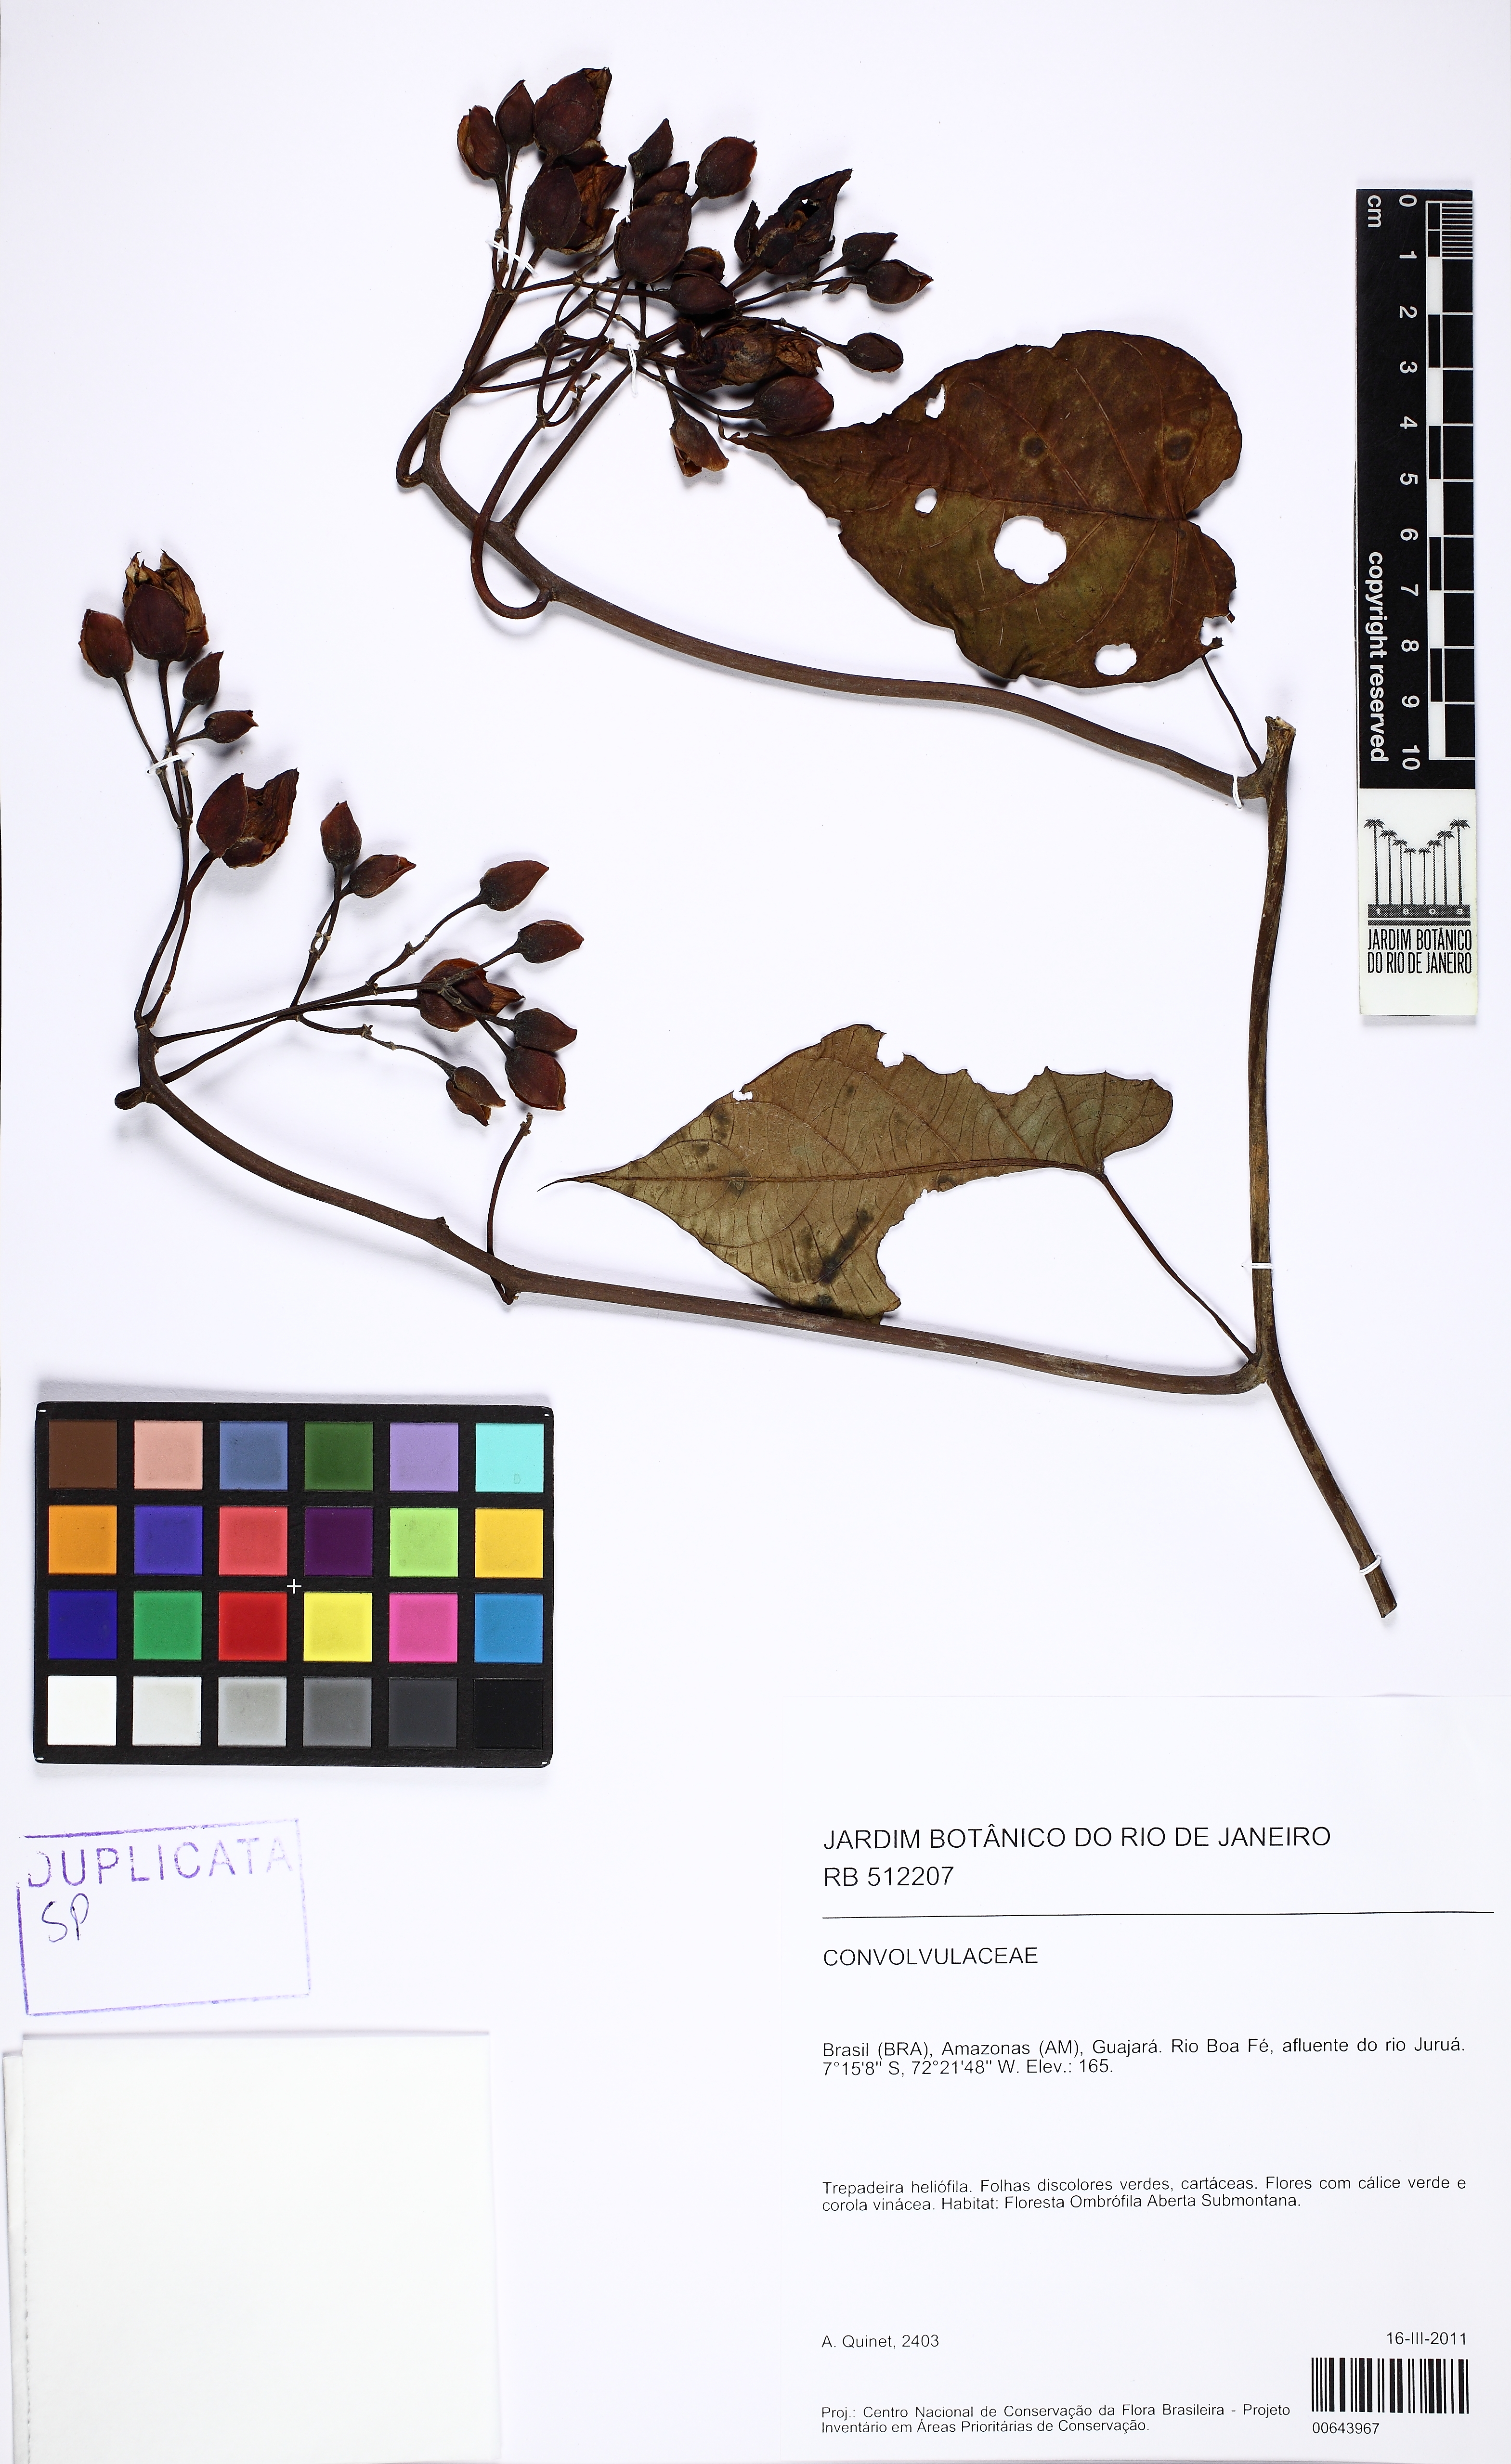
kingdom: Plantae
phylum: Tracheophyta
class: Magnoliopsida
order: Solanales
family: Convolvulaceae
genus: Ipomoea
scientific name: Ipomoea philomega
